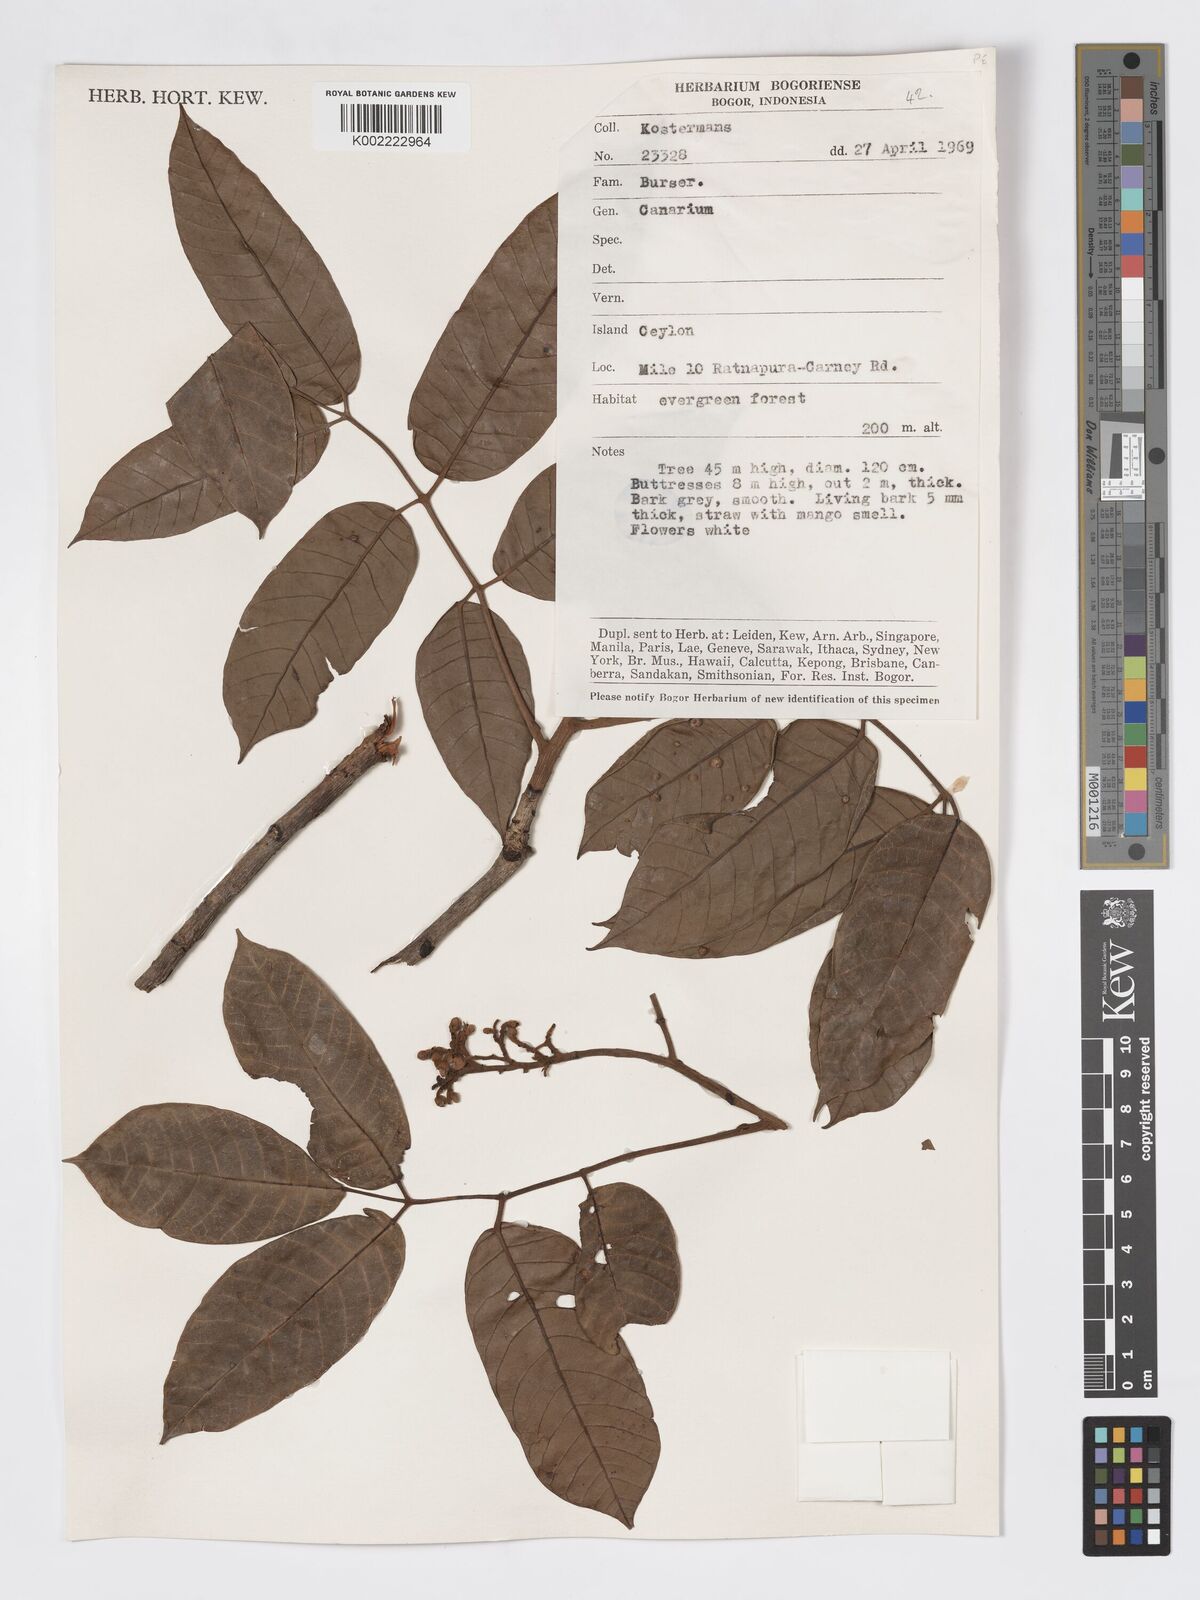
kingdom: Plantae
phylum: Tracheophyta
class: Magnoliopsida
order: Sapindales
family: Burseraceae
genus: Canarium
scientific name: Canarium
